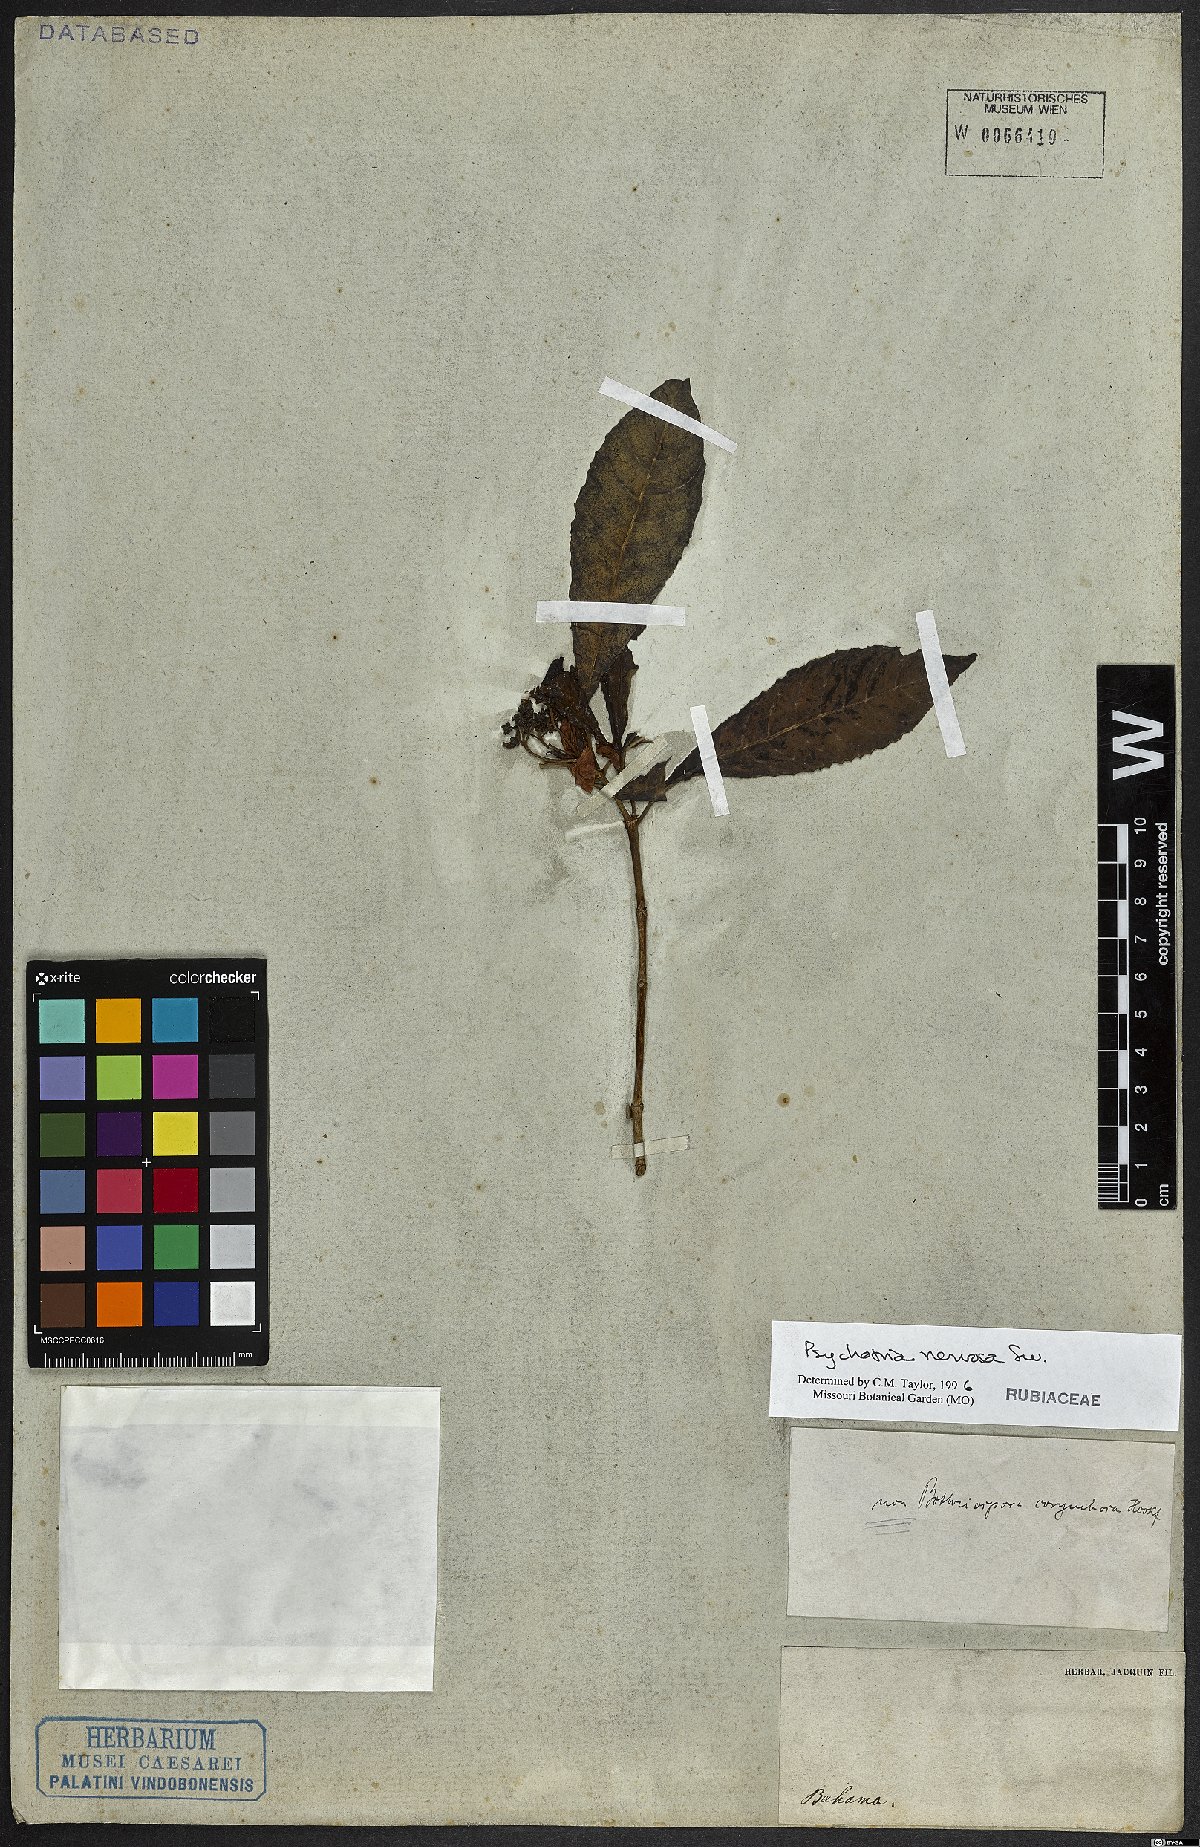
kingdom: Plantae
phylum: Tracheophyta
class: Magnoliopsida
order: Gentianales
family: Rubiaceae
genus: Psychotria
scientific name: Psychotria nervosa
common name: Bastard cankerberry
